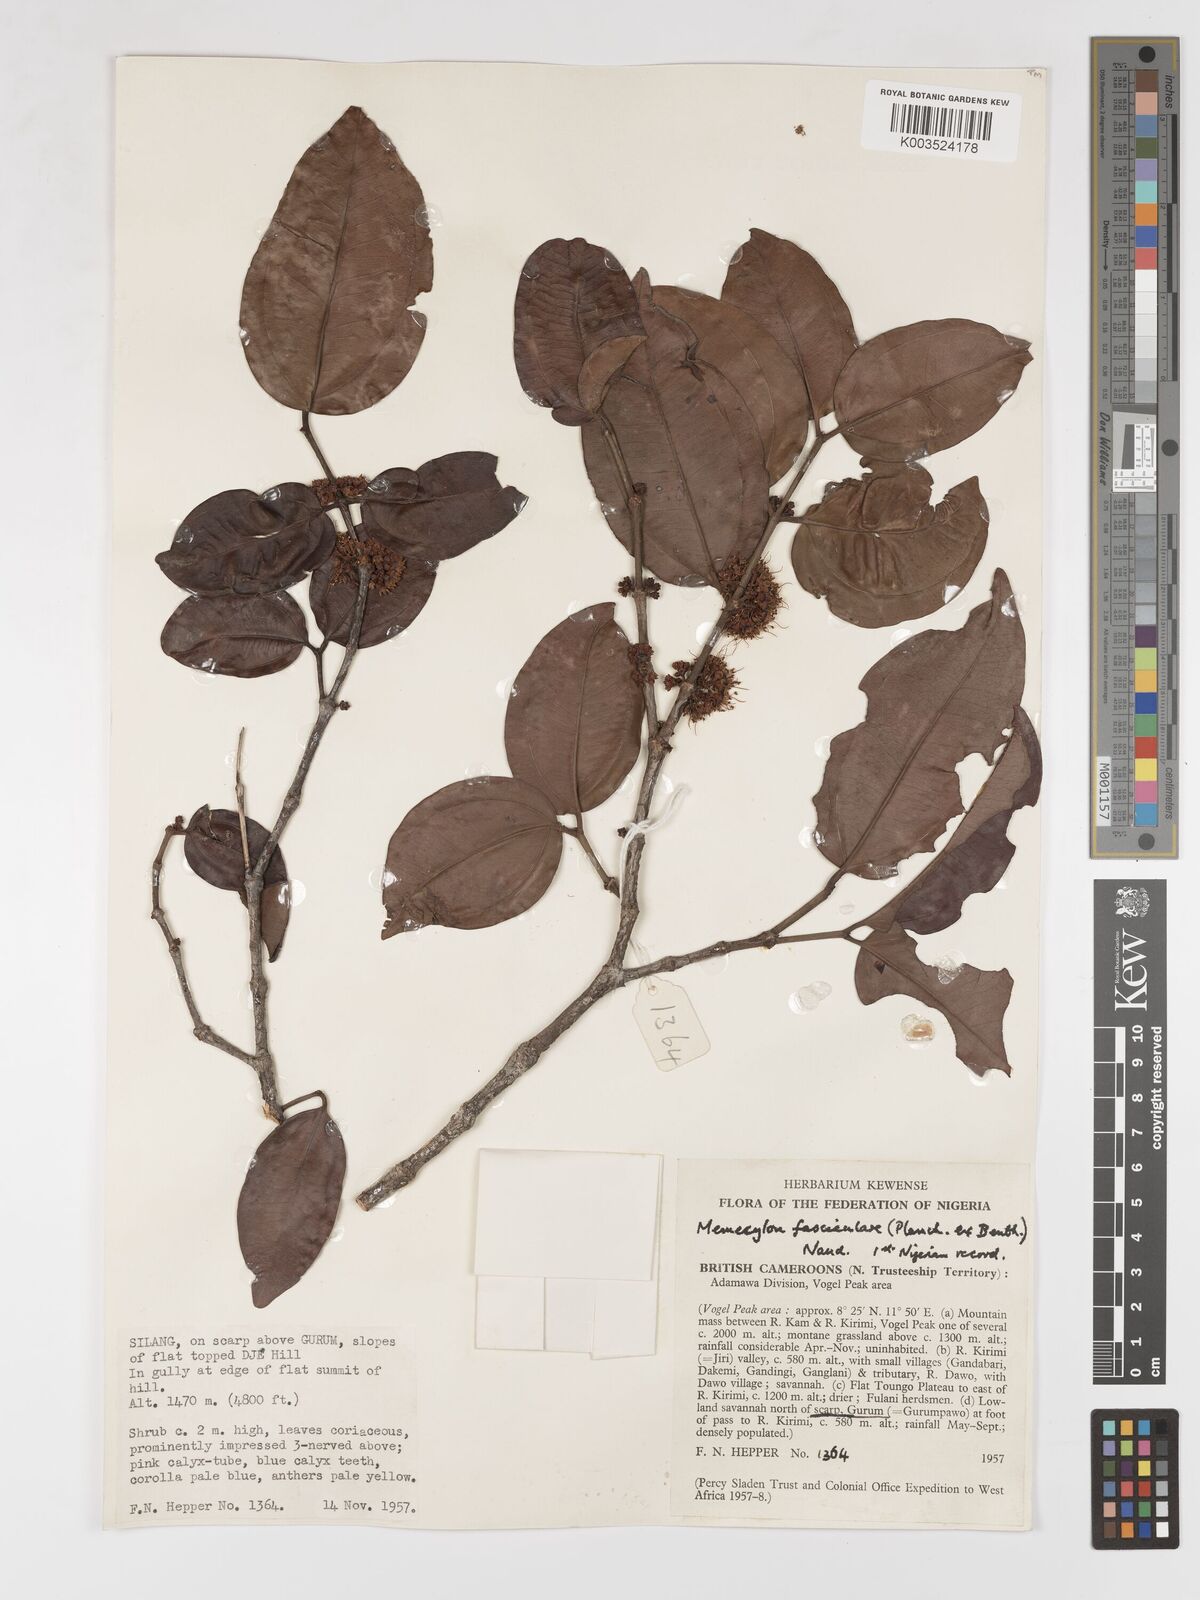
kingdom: Plantae
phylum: Tracheophyta
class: Magnoliopsida
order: Myrtales
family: Melastomataceae
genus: Warneckea
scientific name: Warneckea fascicularis
